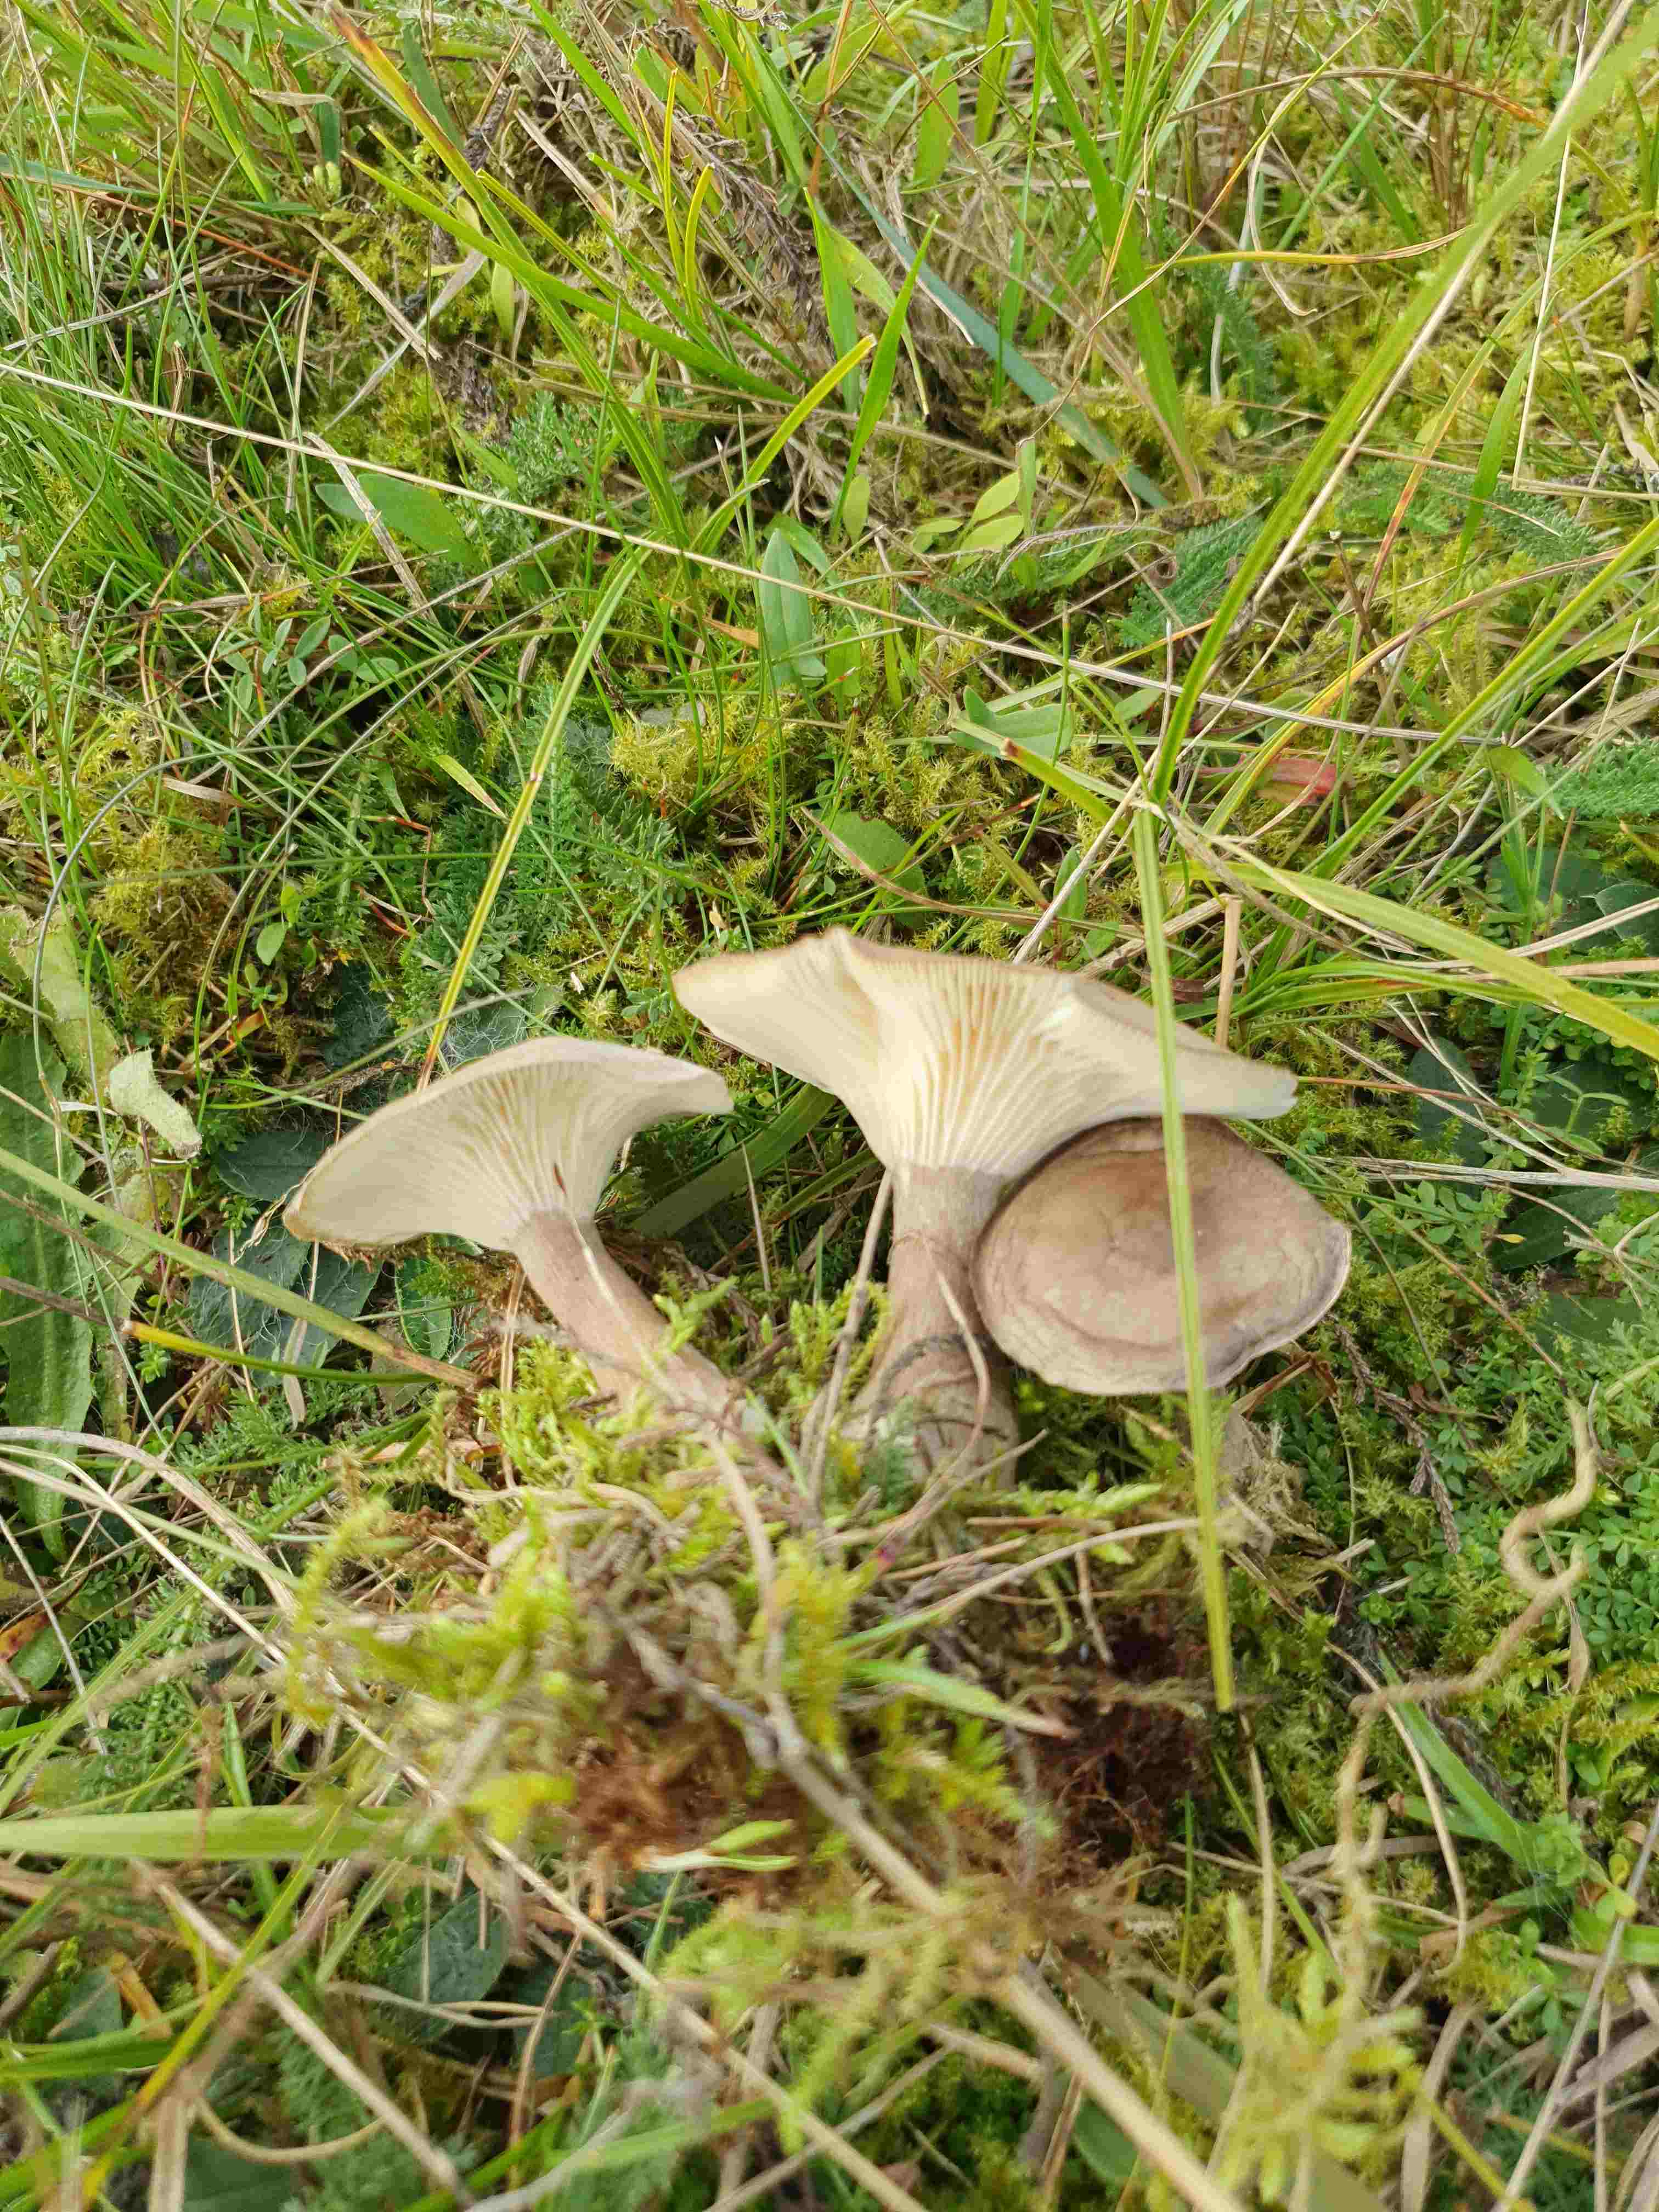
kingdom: Fungi
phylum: Basidiomycota
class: Agaricomycetes
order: Agaricales
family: Hygrophoraceae
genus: Ampulloclitocybe
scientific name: Ampulloclitocybe clavipes
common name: køllefod
